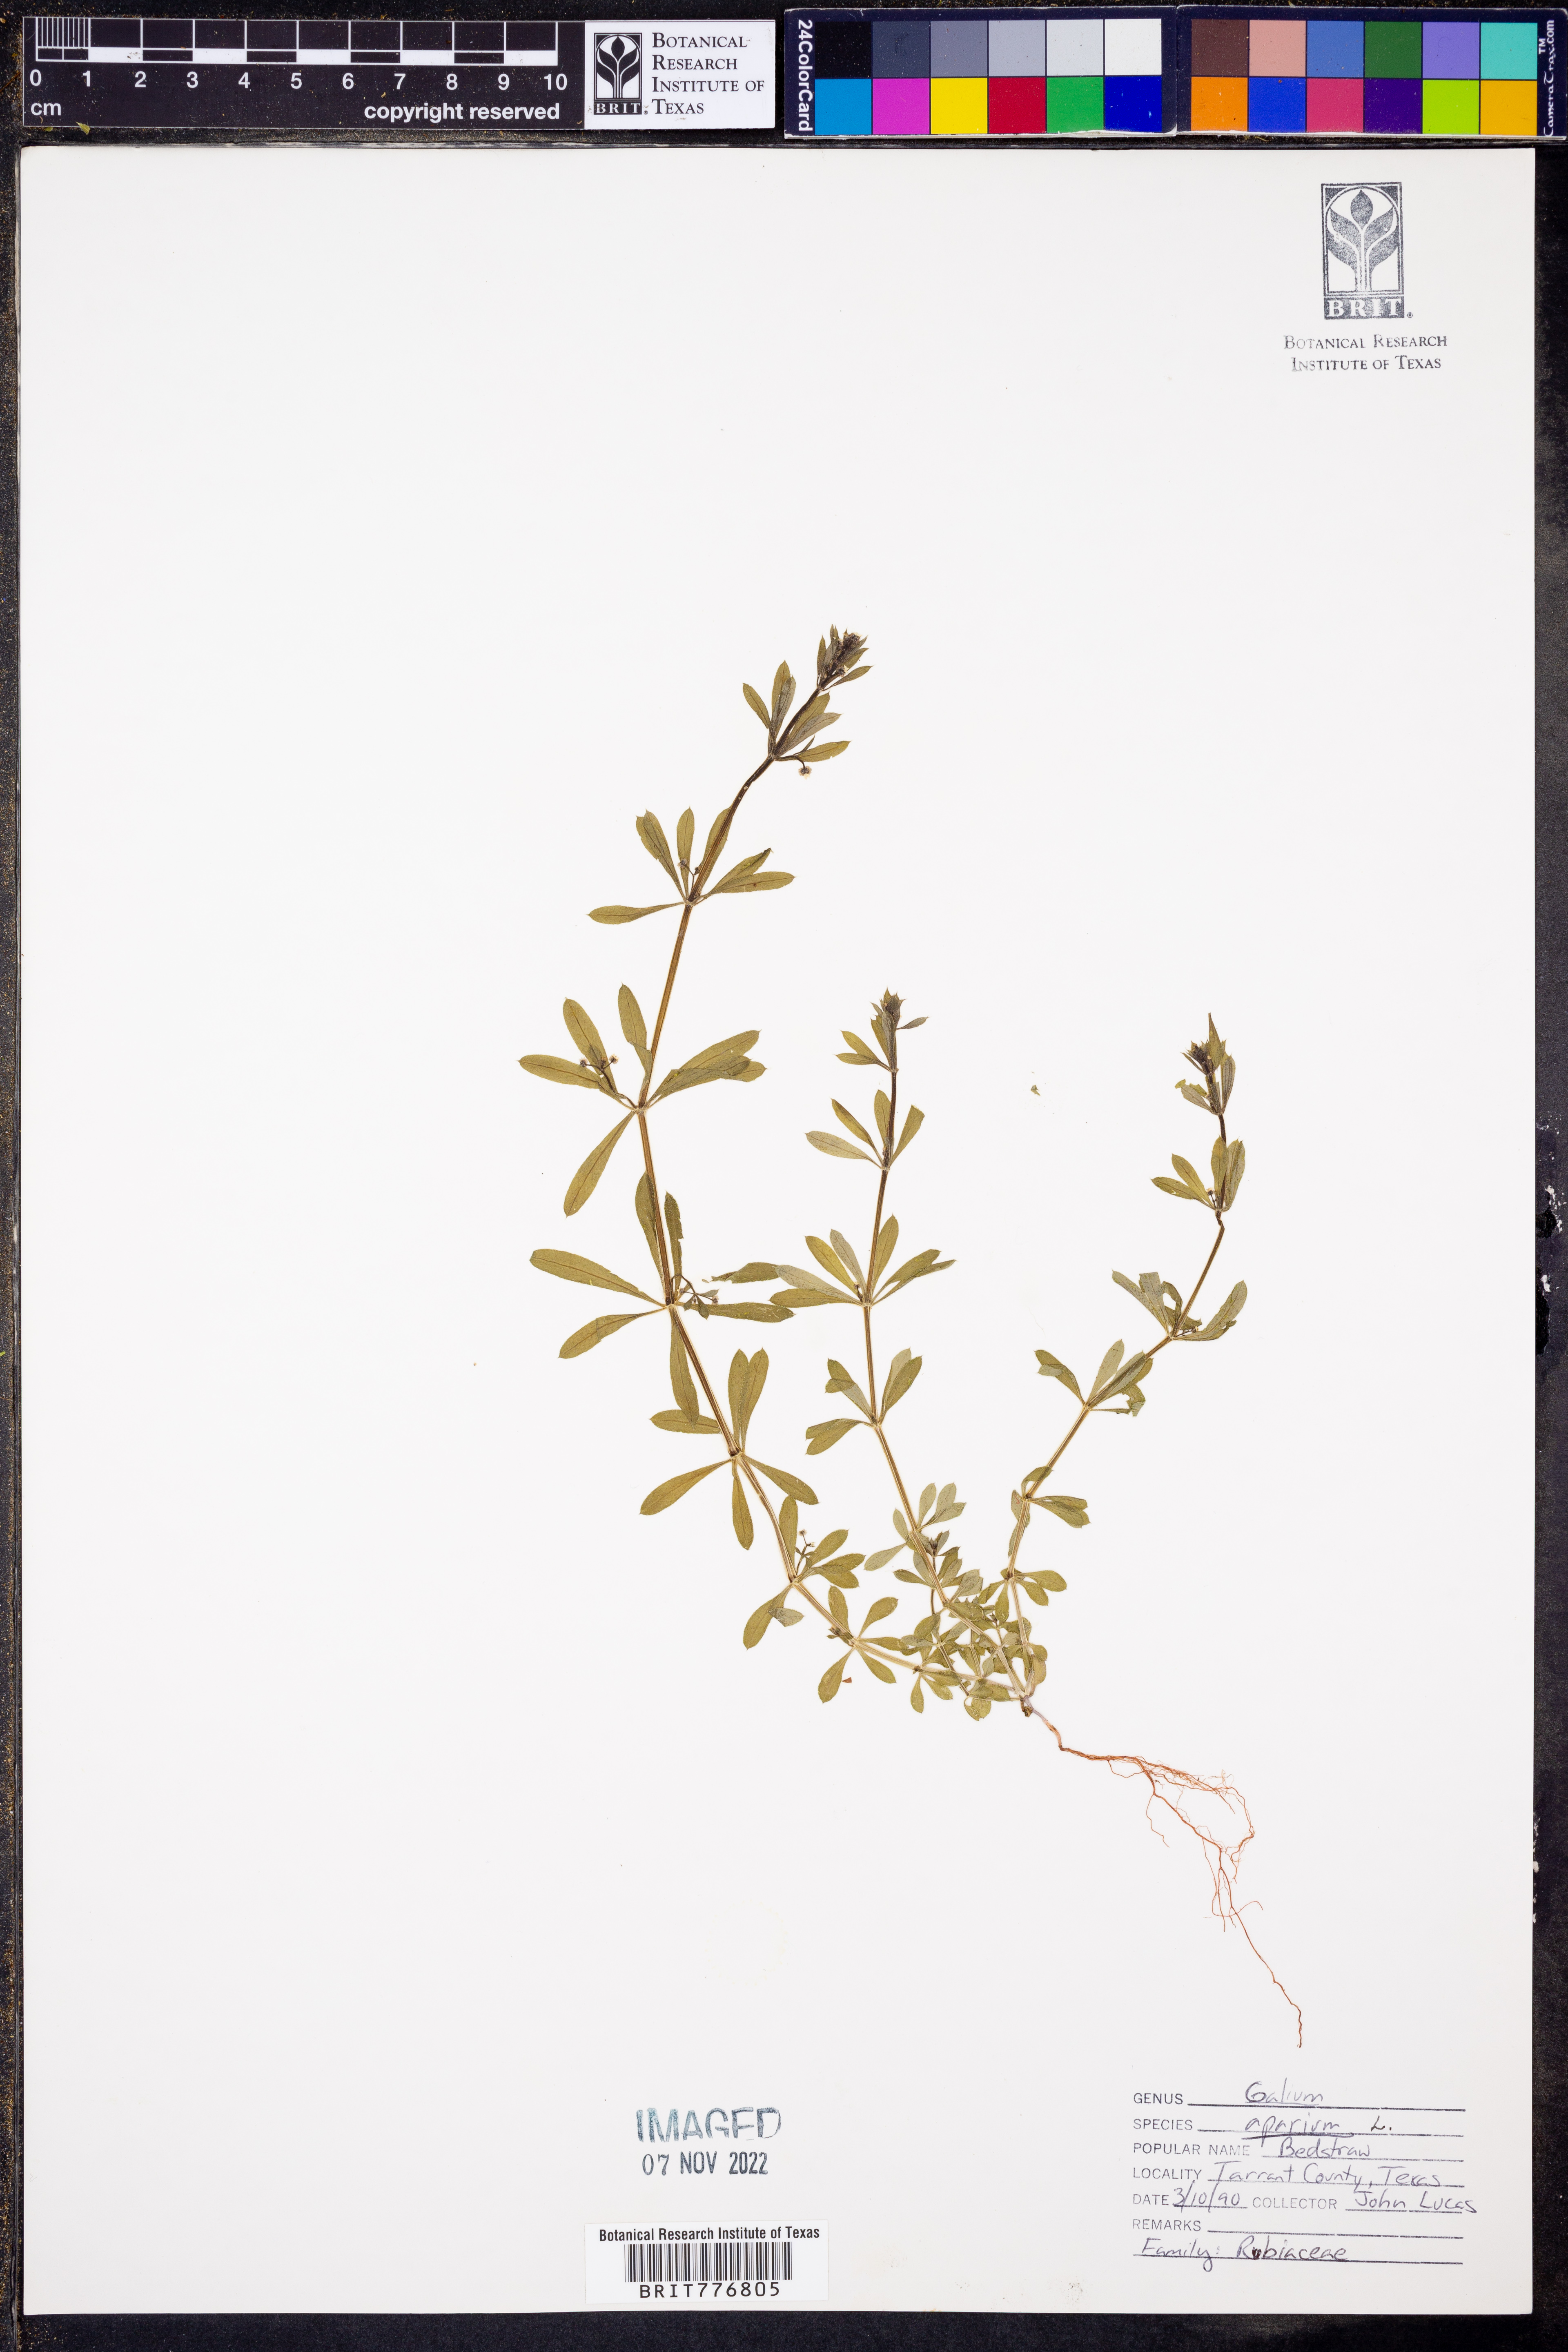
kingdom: Plantae
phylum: Tracheophyta
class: Magnoliopsida
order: Gentianales
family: Rubiaceae
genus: Galium
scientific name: Galium aparine
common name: Cleavers
